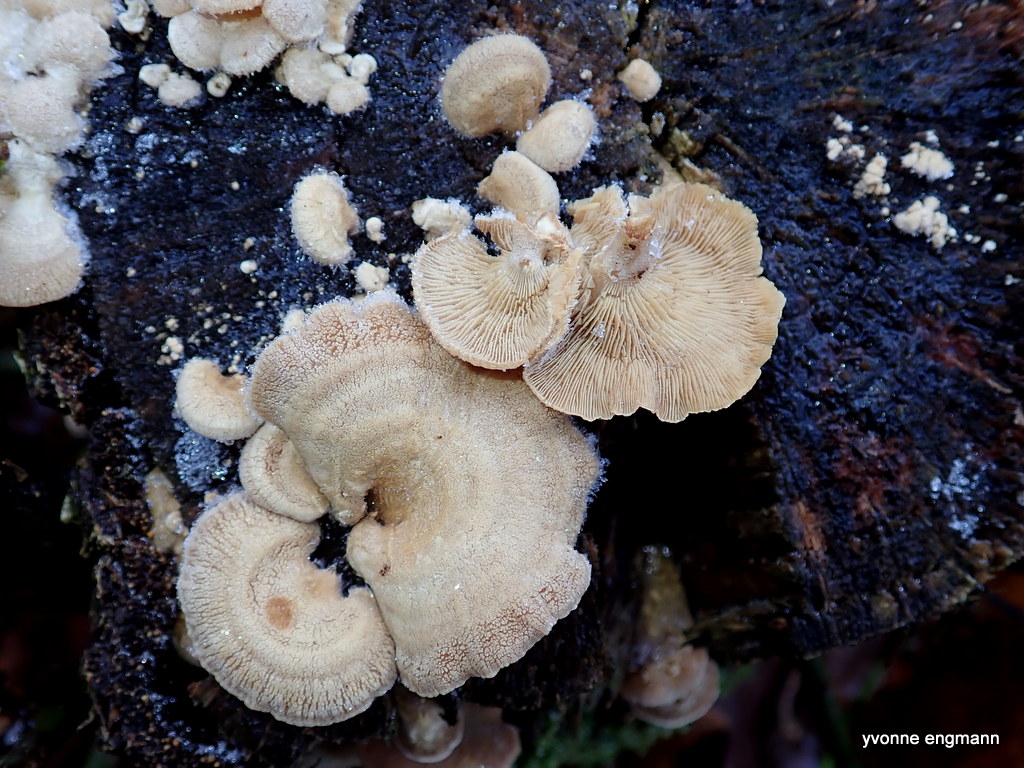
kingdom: Fungi
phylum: Basidiomycota
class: Agaricomycetes
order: Agaricales
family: Mycenaceae
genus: Panellus
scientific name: Panellus stipticus
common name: kliddet epaulethat
